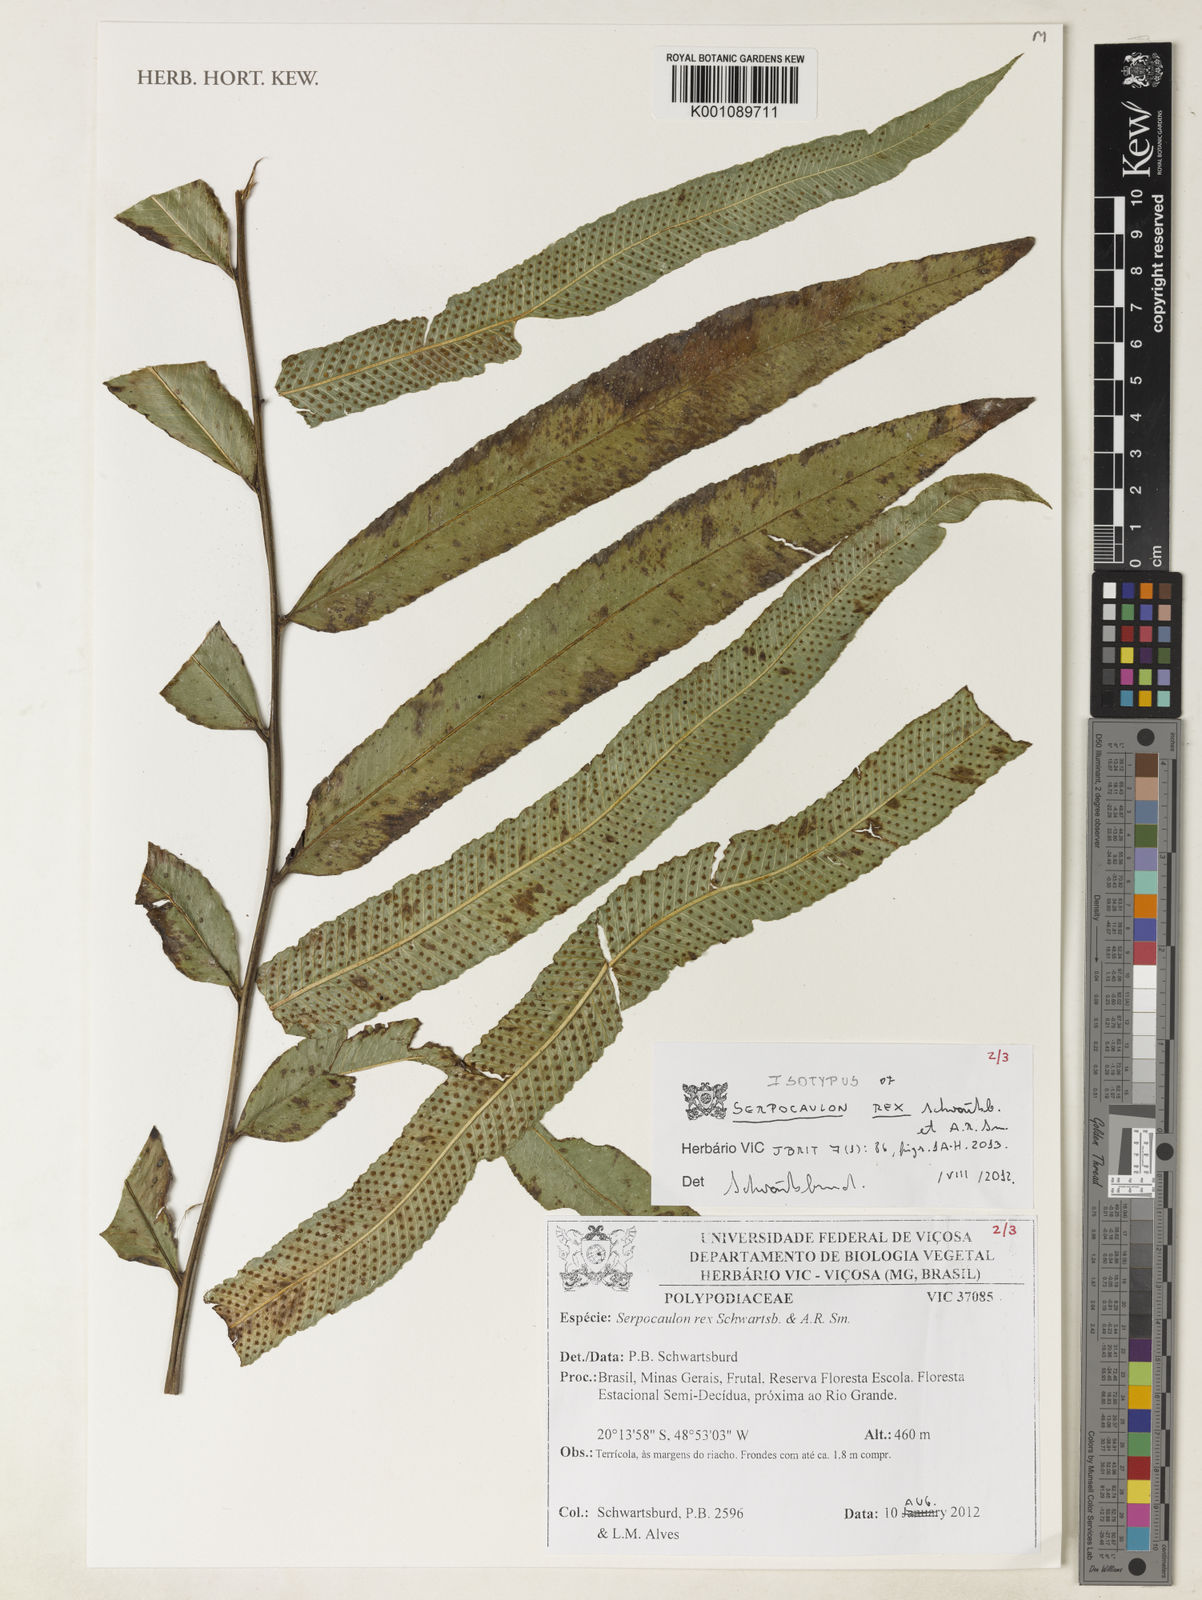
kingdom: Plantae
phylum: Tracheophyta
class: Polypodiopsida
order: Polypodiales
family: Polypodiaceae
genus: Serpocaulon
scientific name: Serpocaulon rex
